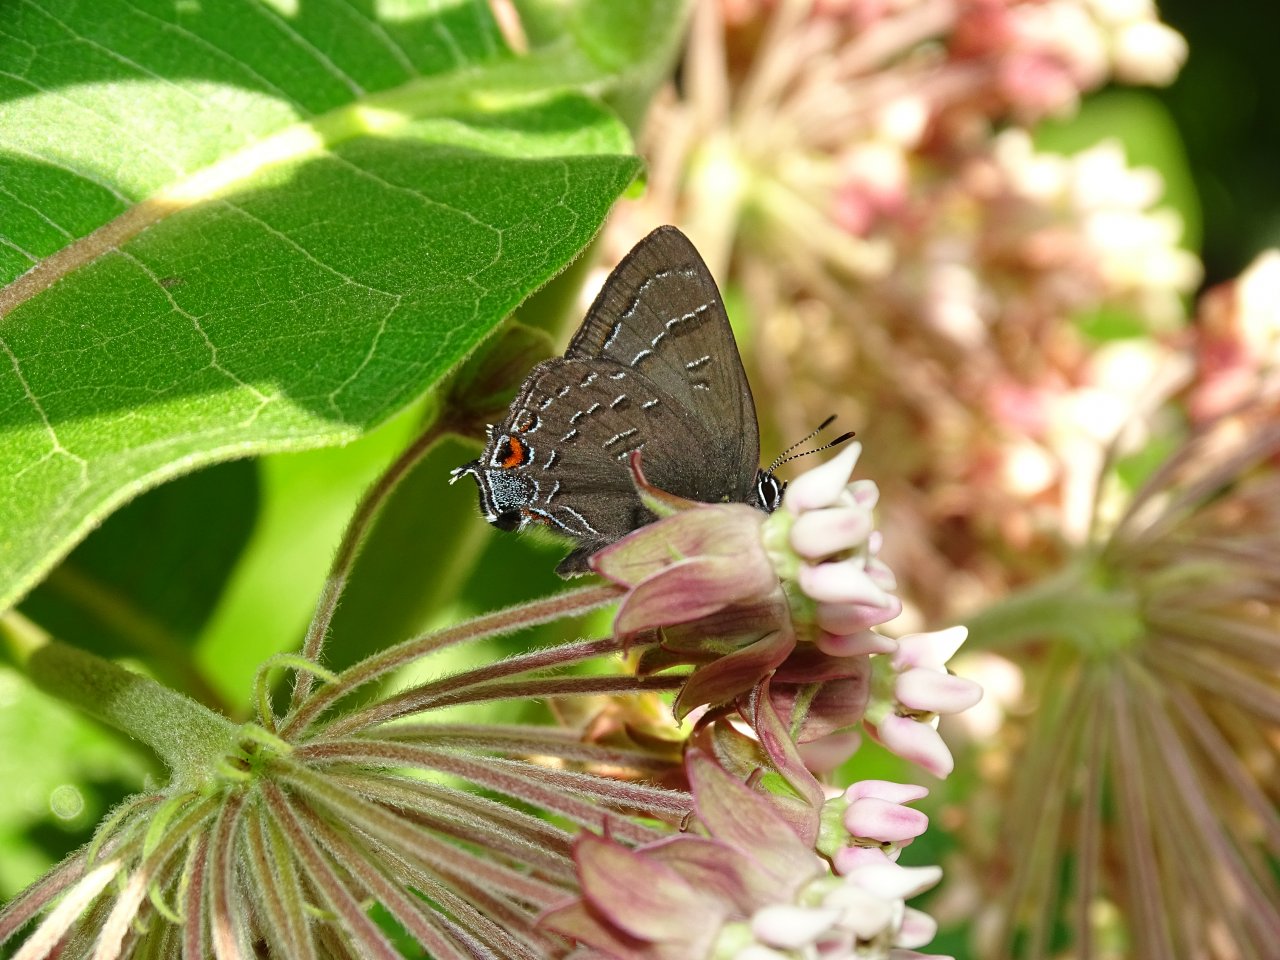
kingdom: Animalia
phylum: Arthropoda
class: Insecta
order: Lepidoptera
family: Lycaenidae
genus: Satyrium
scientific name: Satyrium calanus
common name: Banded Hairstreak
